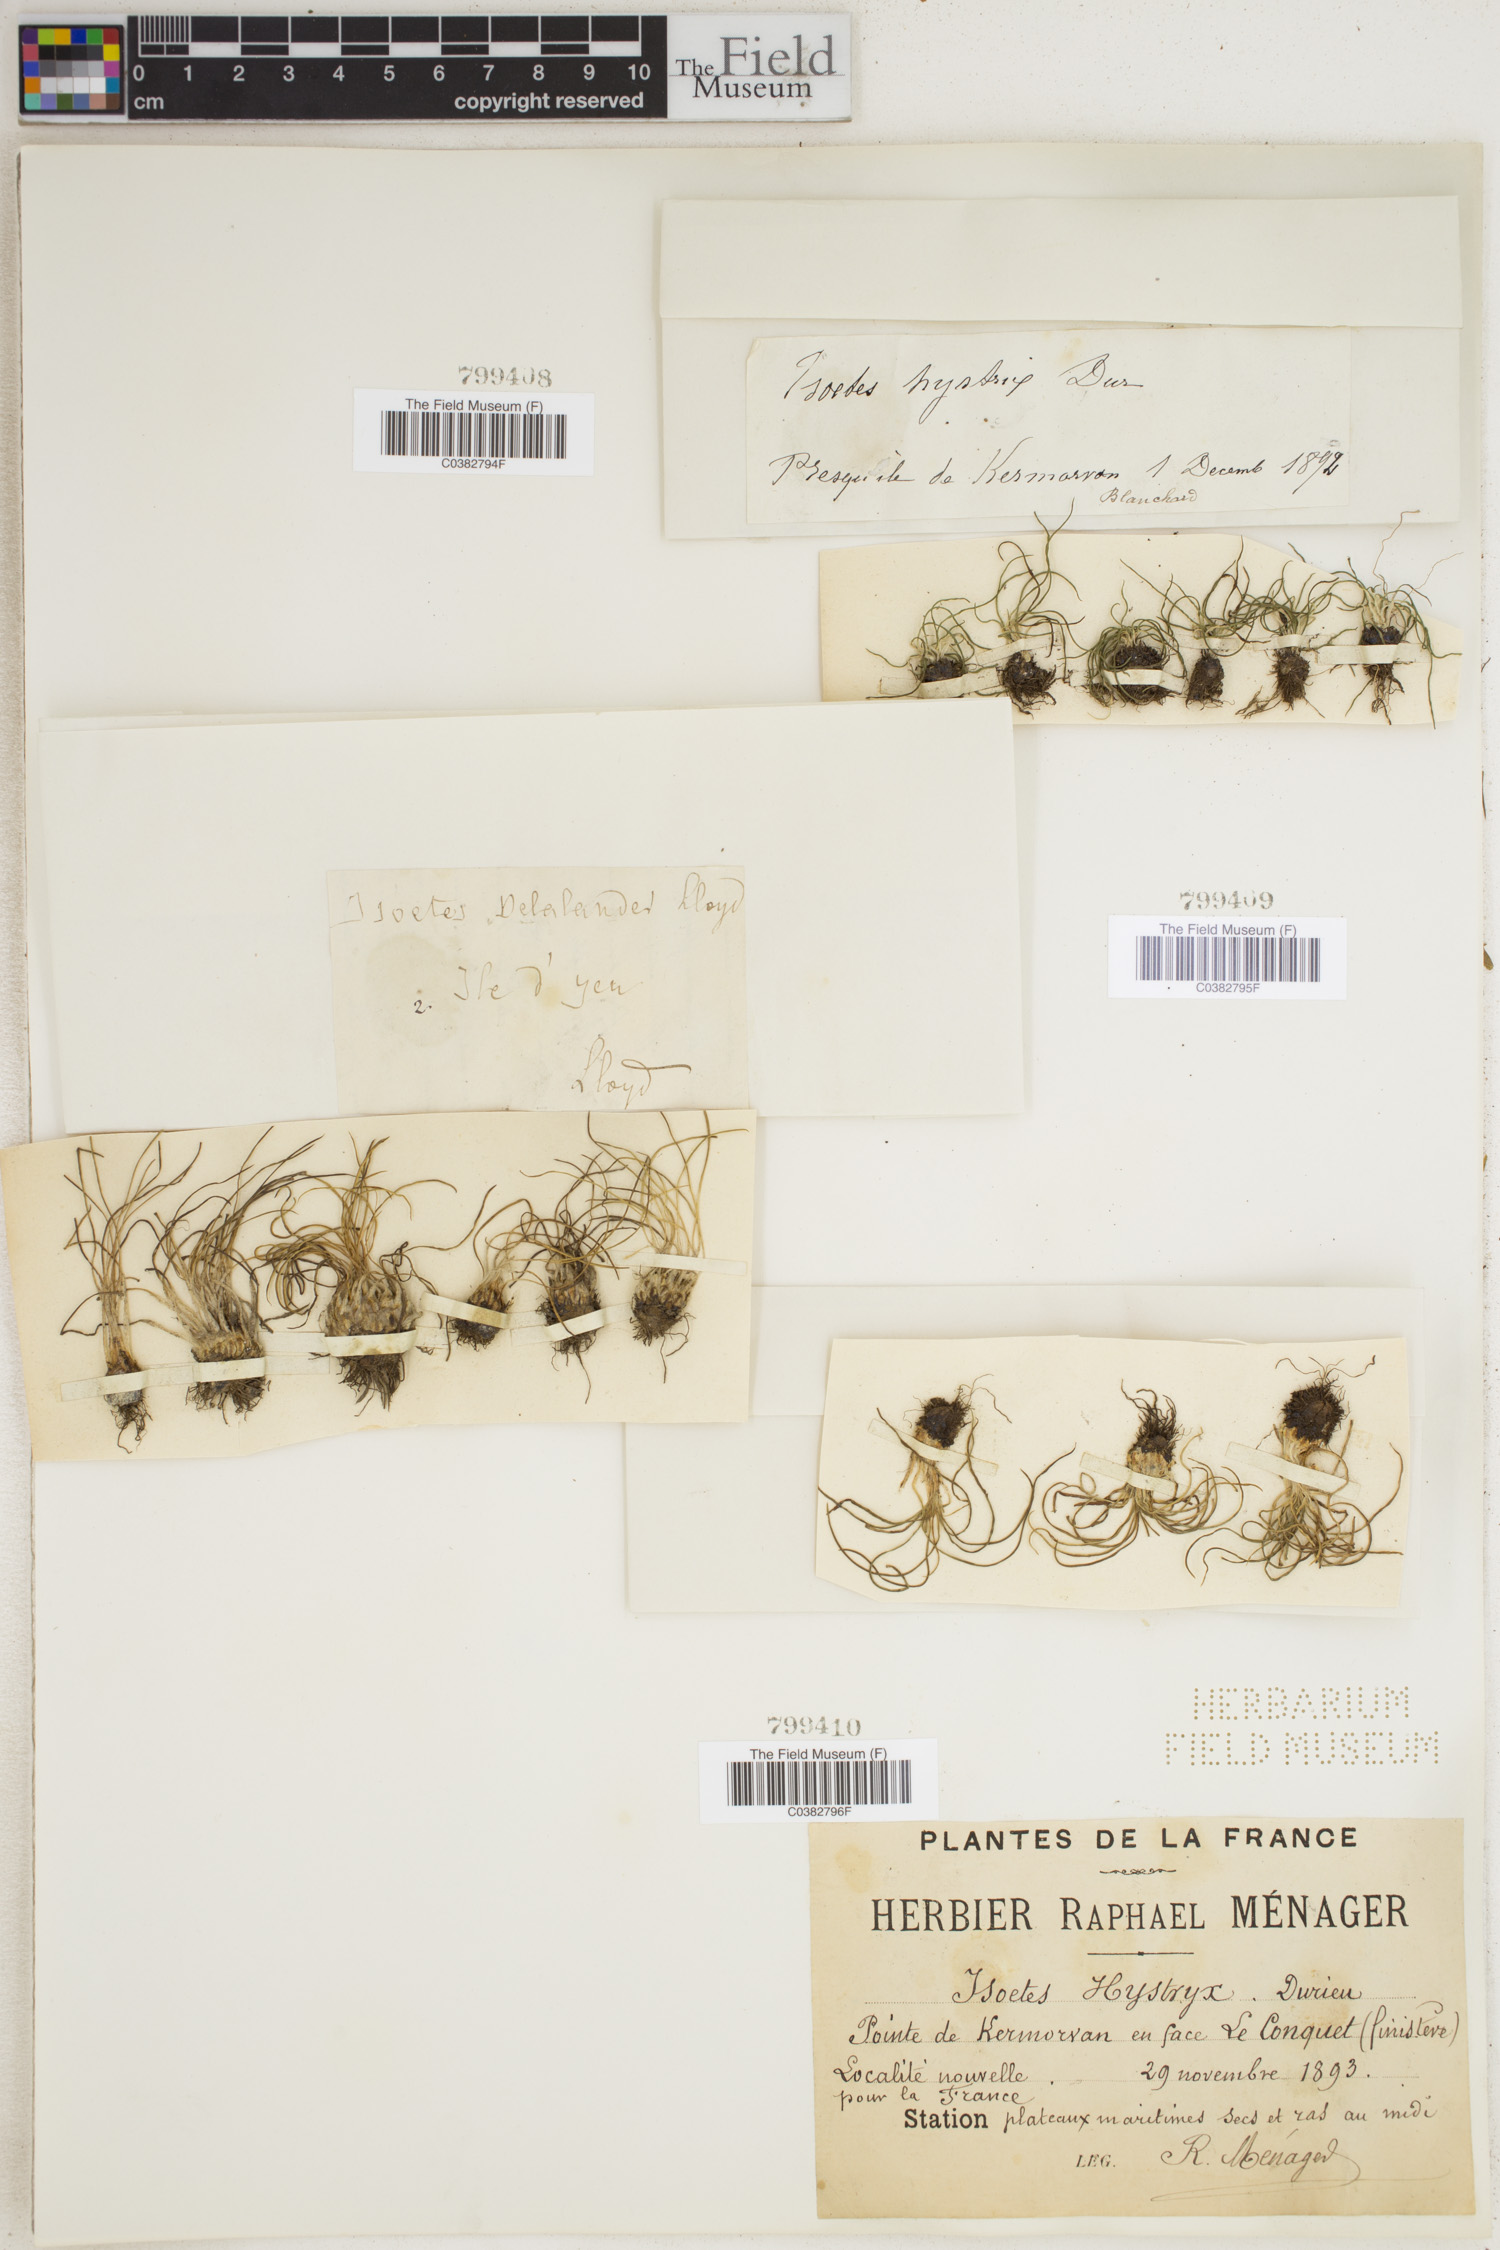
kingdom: Plantae
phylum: Tracheophyta
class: Lycopodiopsida
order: Isoetales
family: Isoetaceae
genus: Isoetes
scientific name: Isoetes histrix
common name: Land quillwort
